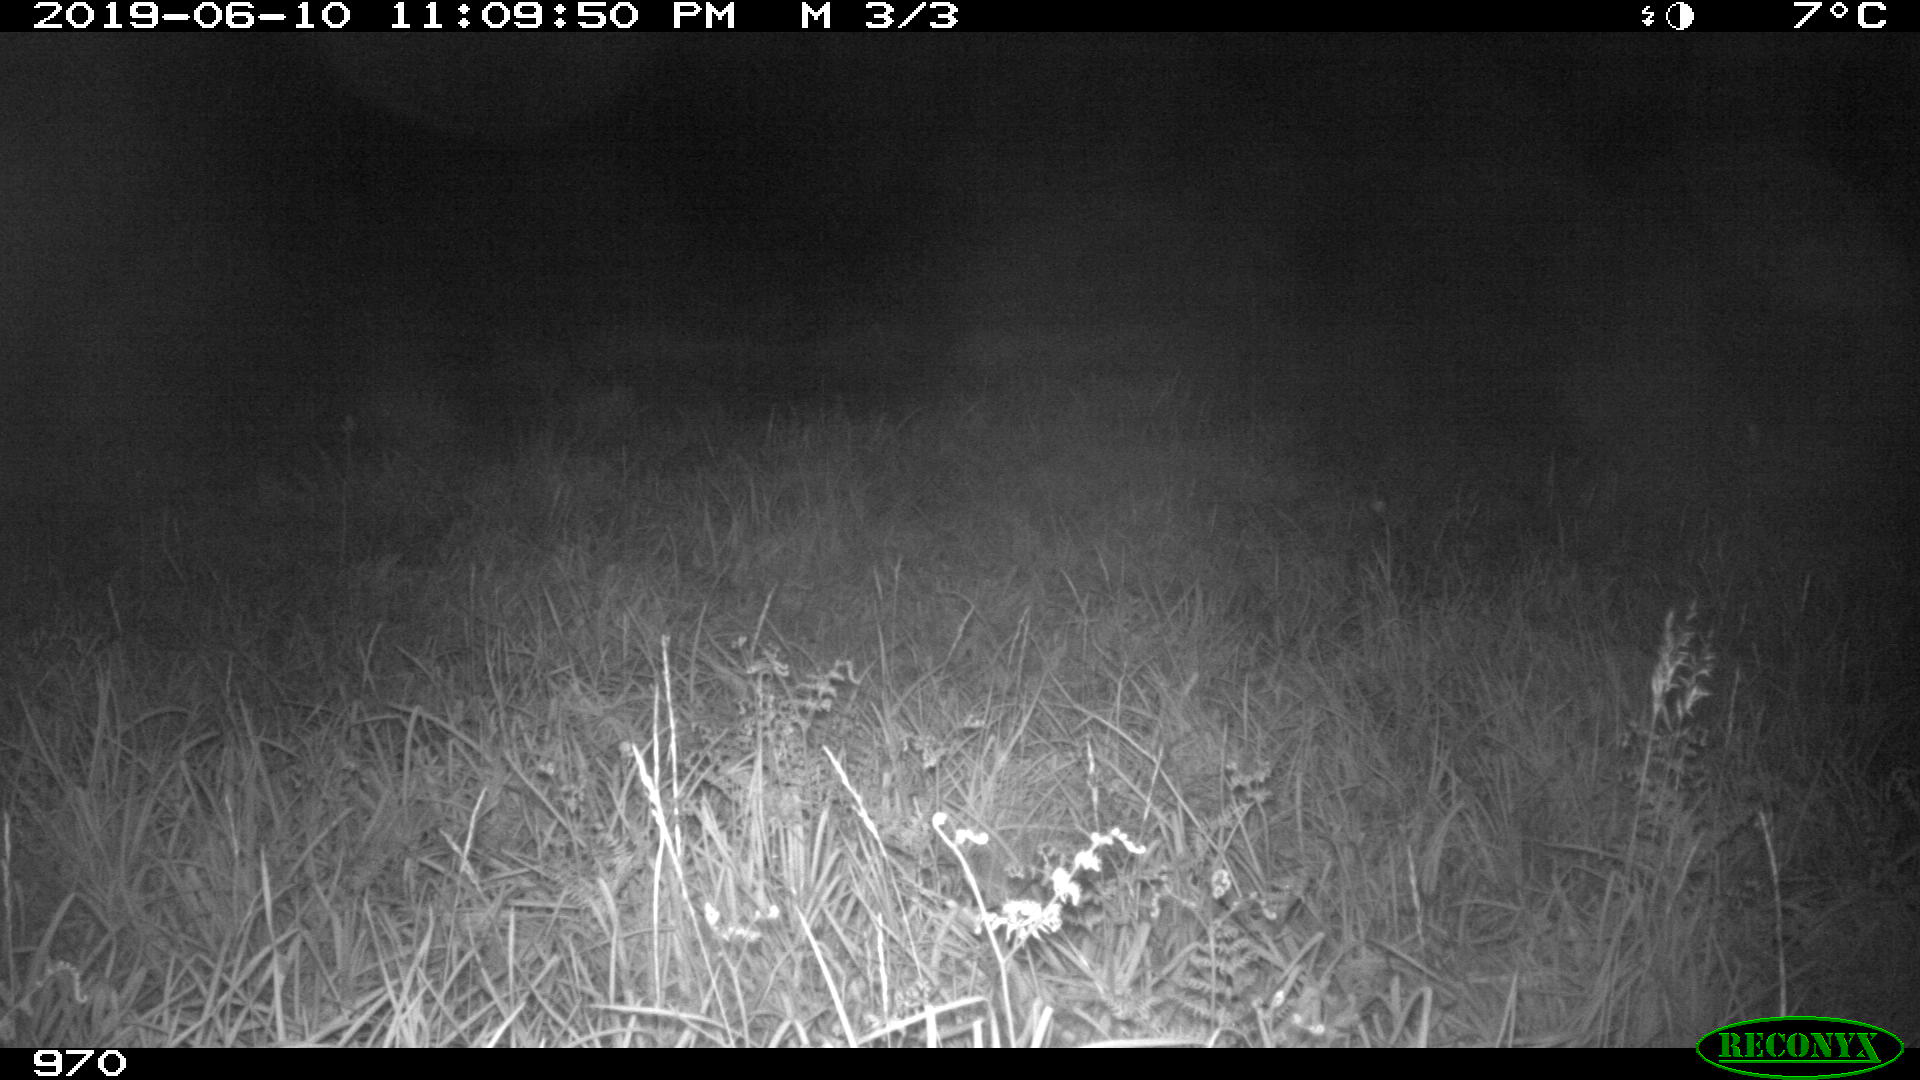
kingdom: Animalia
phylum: Chordata
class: Mammalia
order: Artiodactyla
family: Cervidae
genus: Capreolus
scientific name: Capreolus capreolus
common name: Western roe deer
